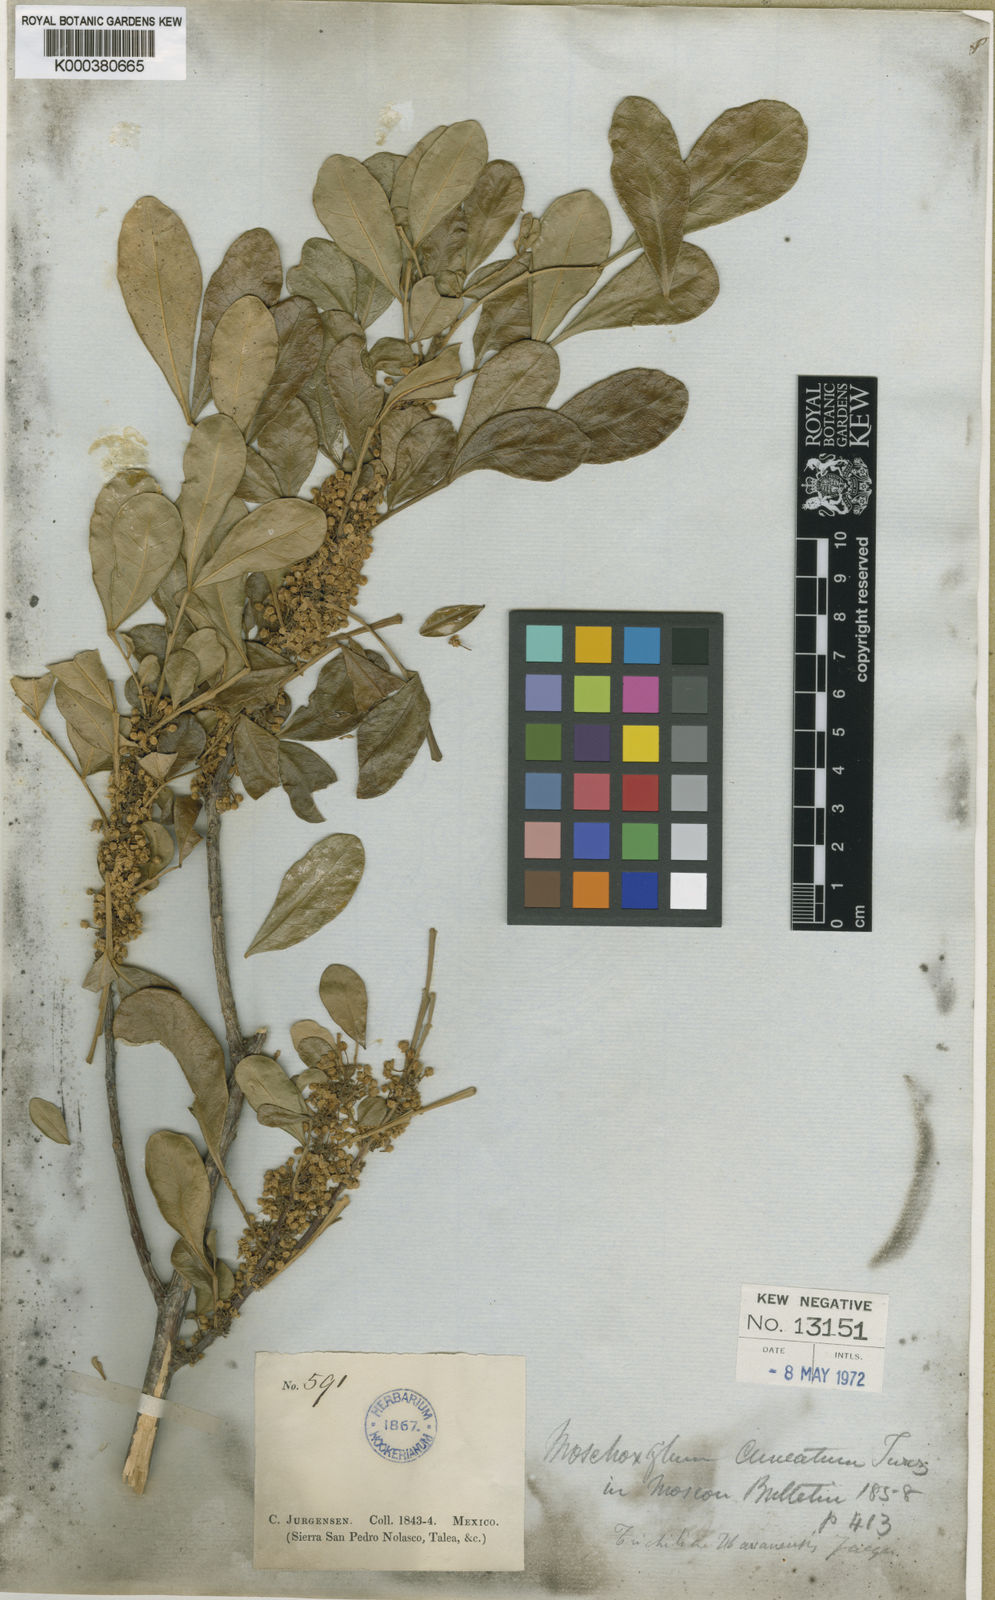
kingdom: Plantae
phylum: Tracheophyta
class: Magnoliopsida
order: Sapindales
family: Meliaceae
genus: Trichilia
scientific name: Trichilia havanensis
